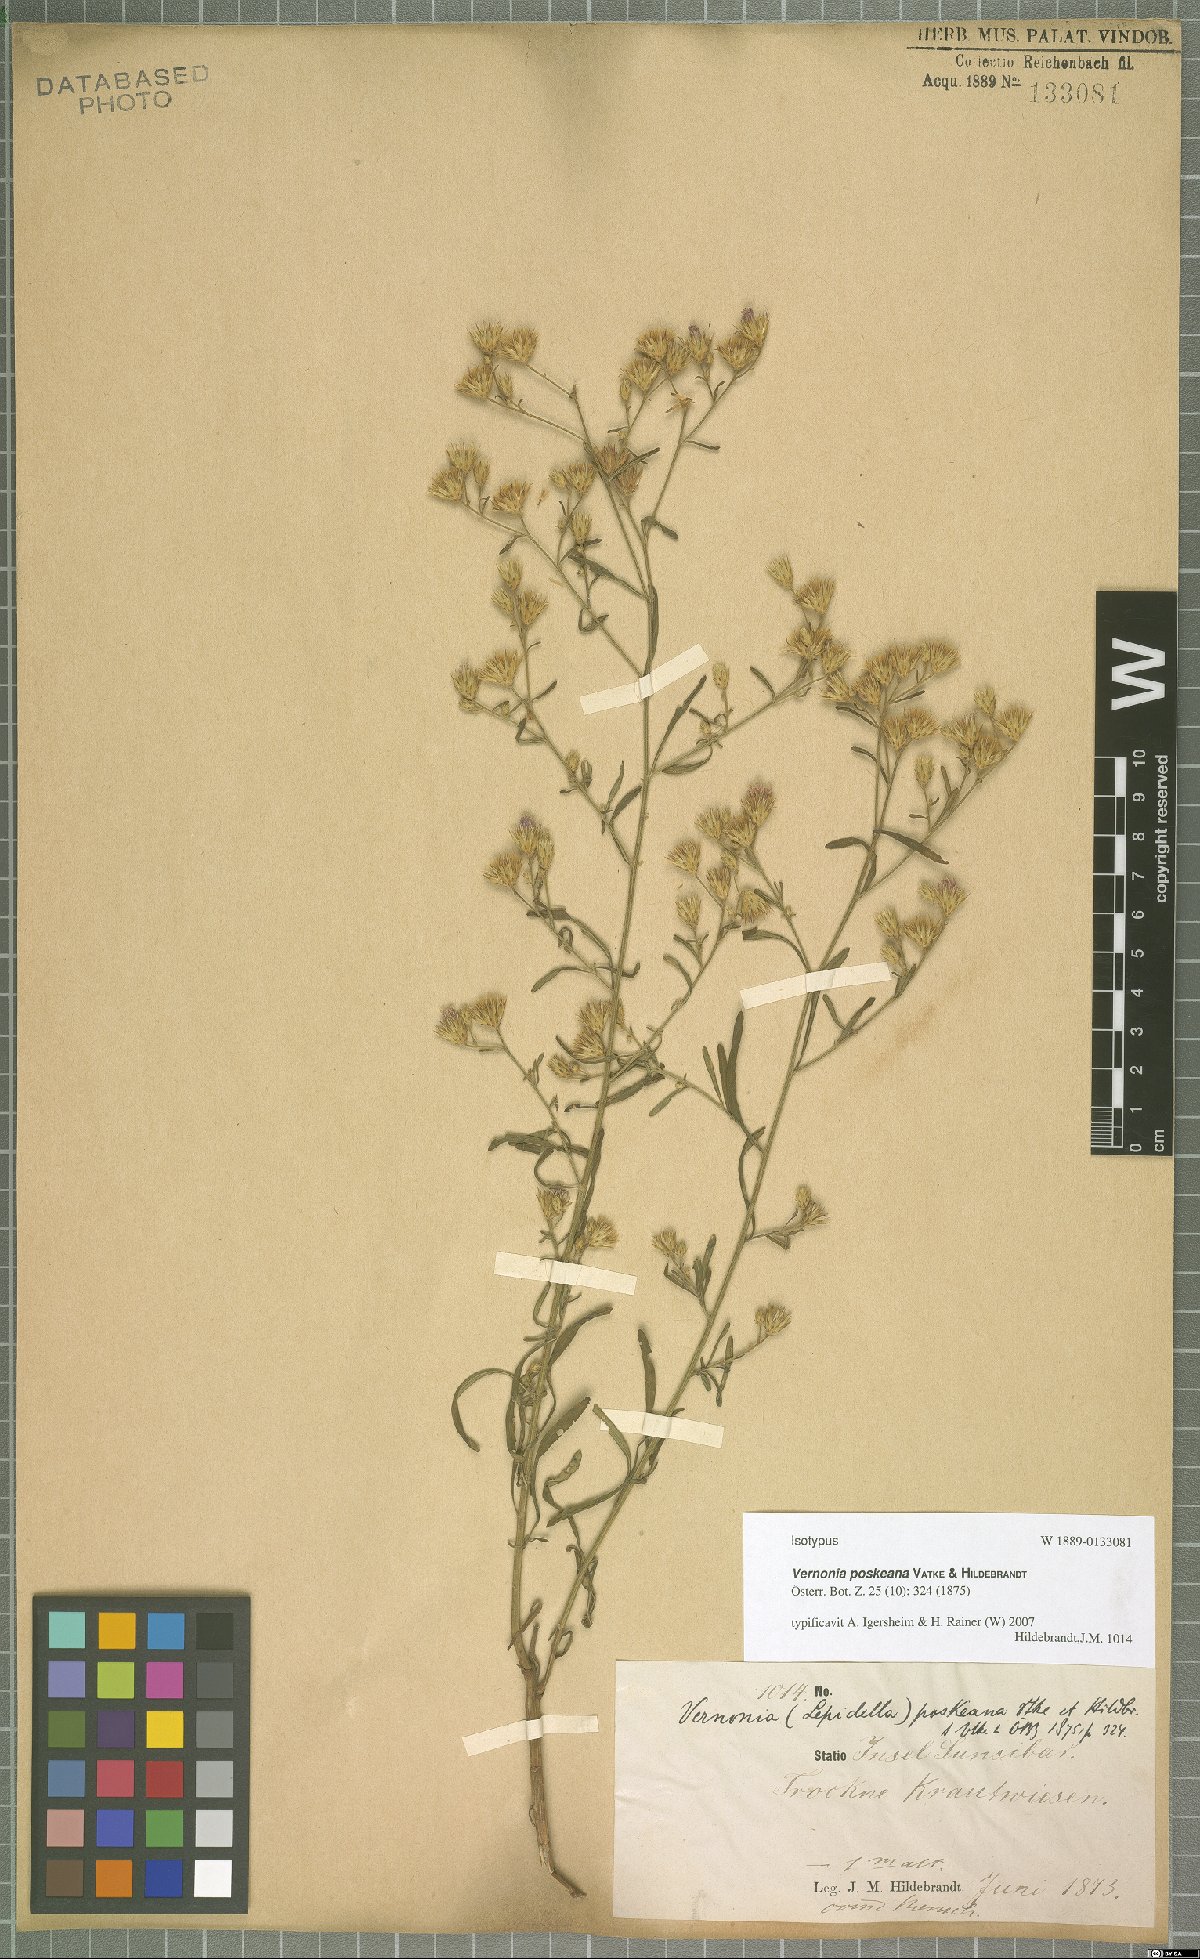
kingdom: Plantae
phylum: Tracheophyta
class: Magnoliopsida
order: Asterales
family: Asteraceae
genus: Crystallopollen
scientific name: Crystallopollen angustifolium
